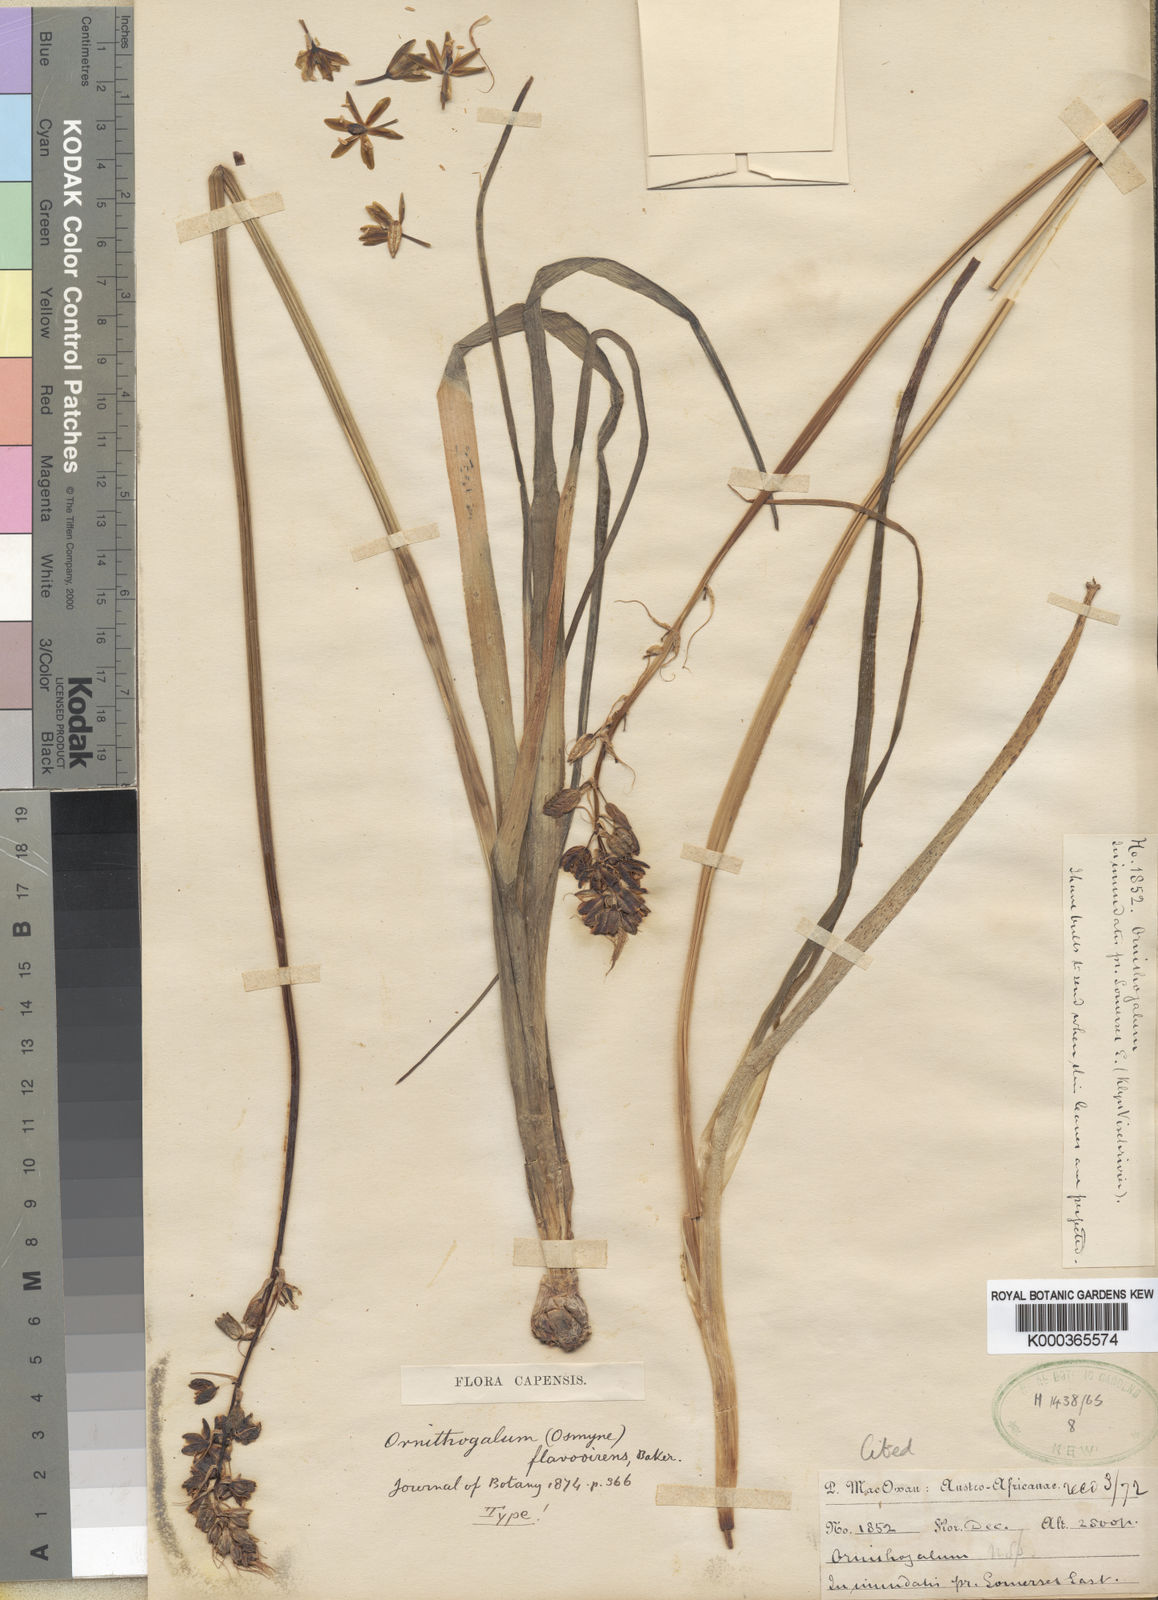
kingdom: Plantae
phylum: Tracheophyta
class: Liliopsida
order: Asparagales
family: Asparagaceae
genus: Ornithogalum
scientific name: Ornithogalum
